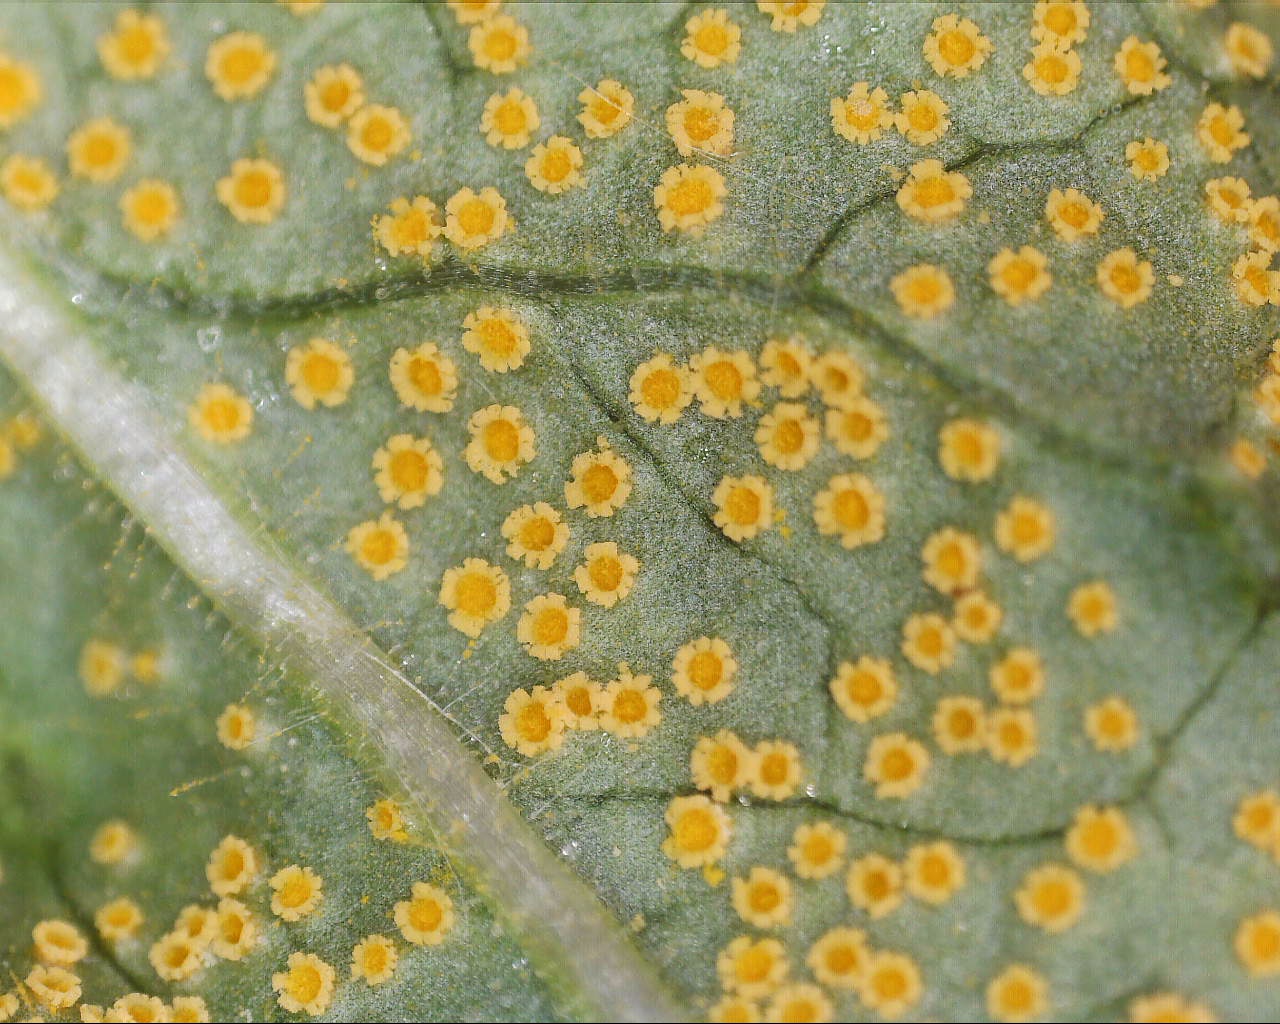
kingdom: Fungi
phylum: Basidiomycota
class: Pucciniomycetes
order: Pucciniales
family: Pucciniaceae
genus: Puccinia
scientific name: Puccinia pulverulenta
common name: dueurt-tvecellerust
